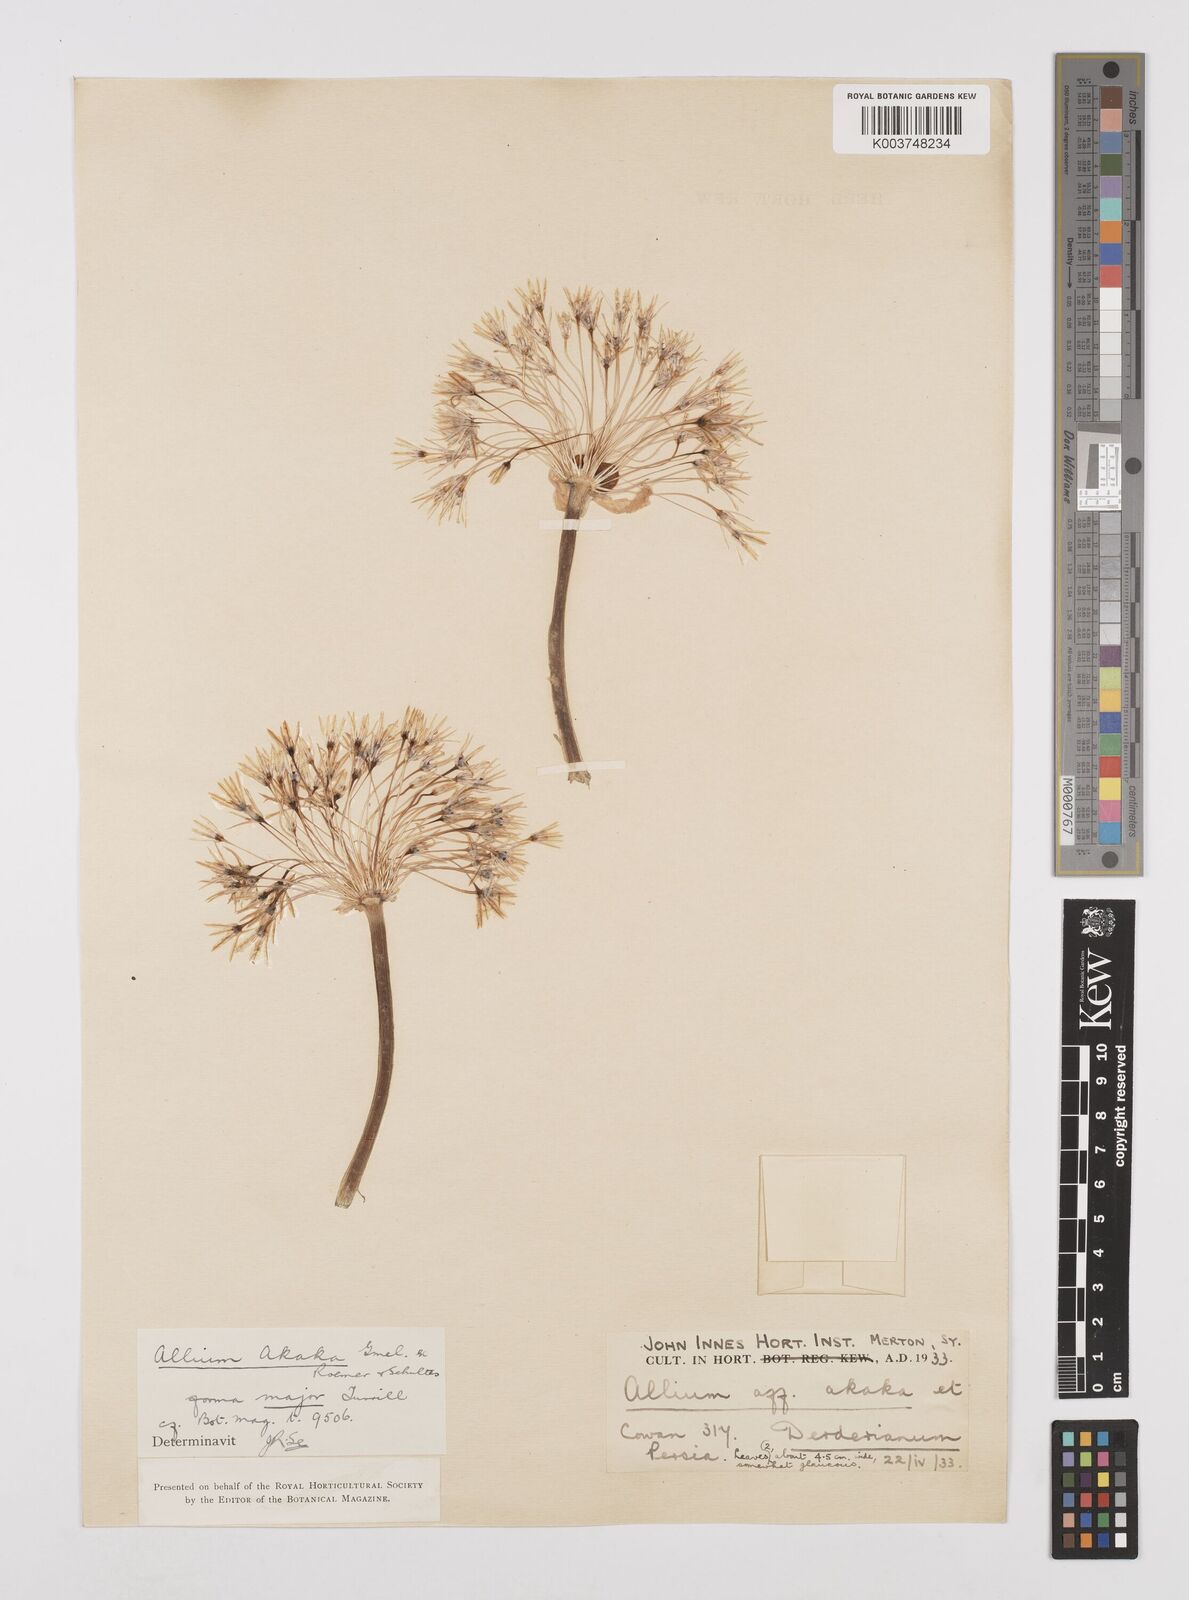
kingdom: Plantae
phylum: Tracheophyta
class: Liliopsida
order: Asparagales
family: Amaryllidaceae
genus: Allium
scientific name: Allium akaka
